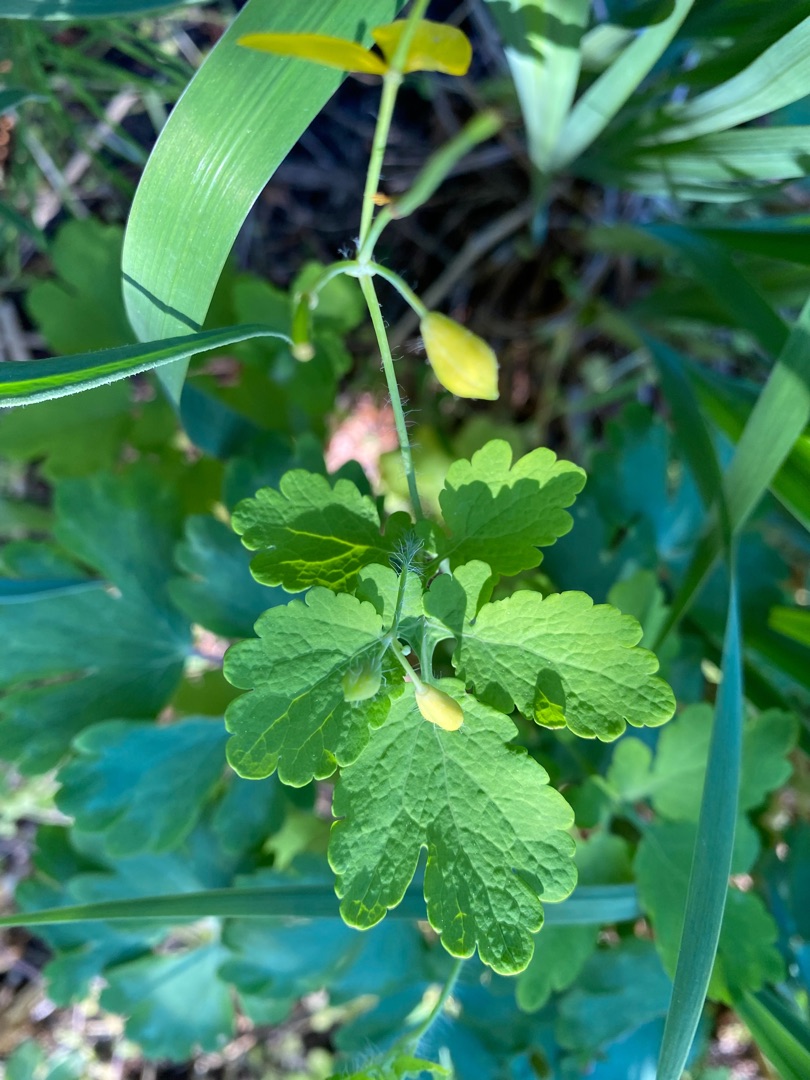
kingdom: Plantae
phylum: Tracheophyta
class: Magnoliopsida
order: Ranunculales
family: Papaveraceae
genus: Chelidonium
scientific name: Chelidonium majus
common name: Svaleurt
